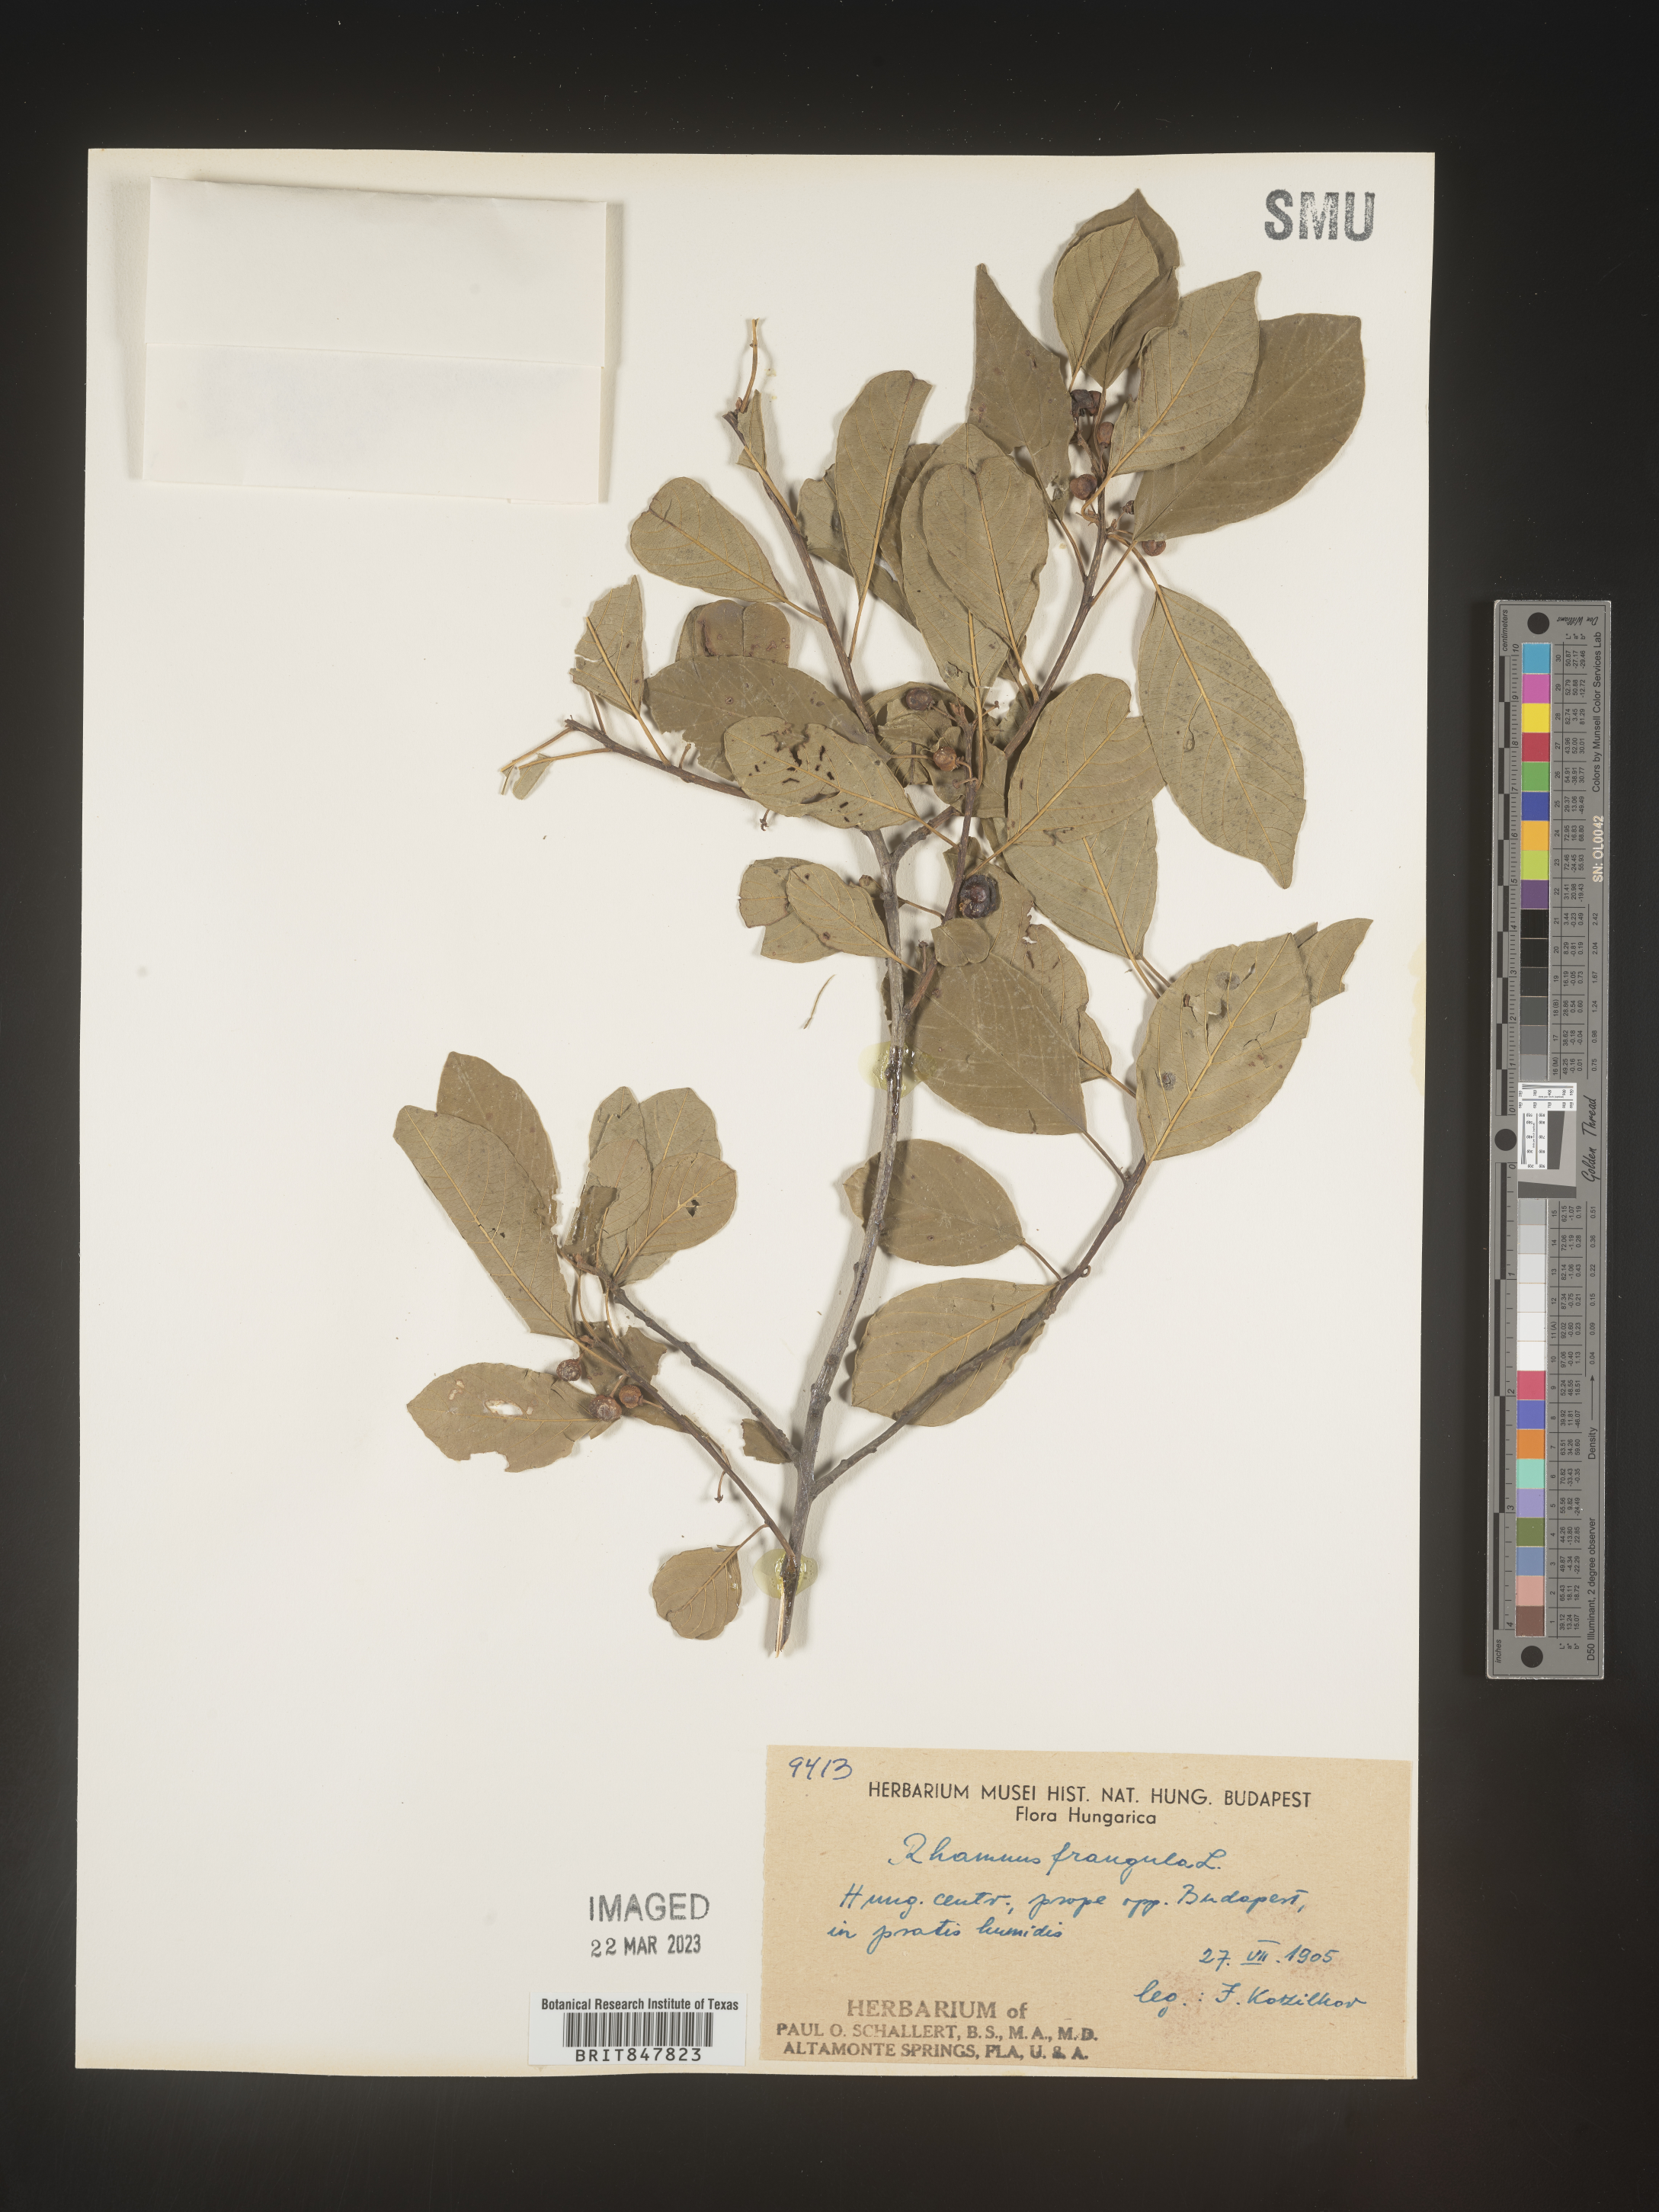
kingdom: Plantae
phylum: Tracheophyta
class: Magnoliopsida
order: Rosales
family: Rhamnaceae
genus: Rhamnus
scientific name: Rhamnus
